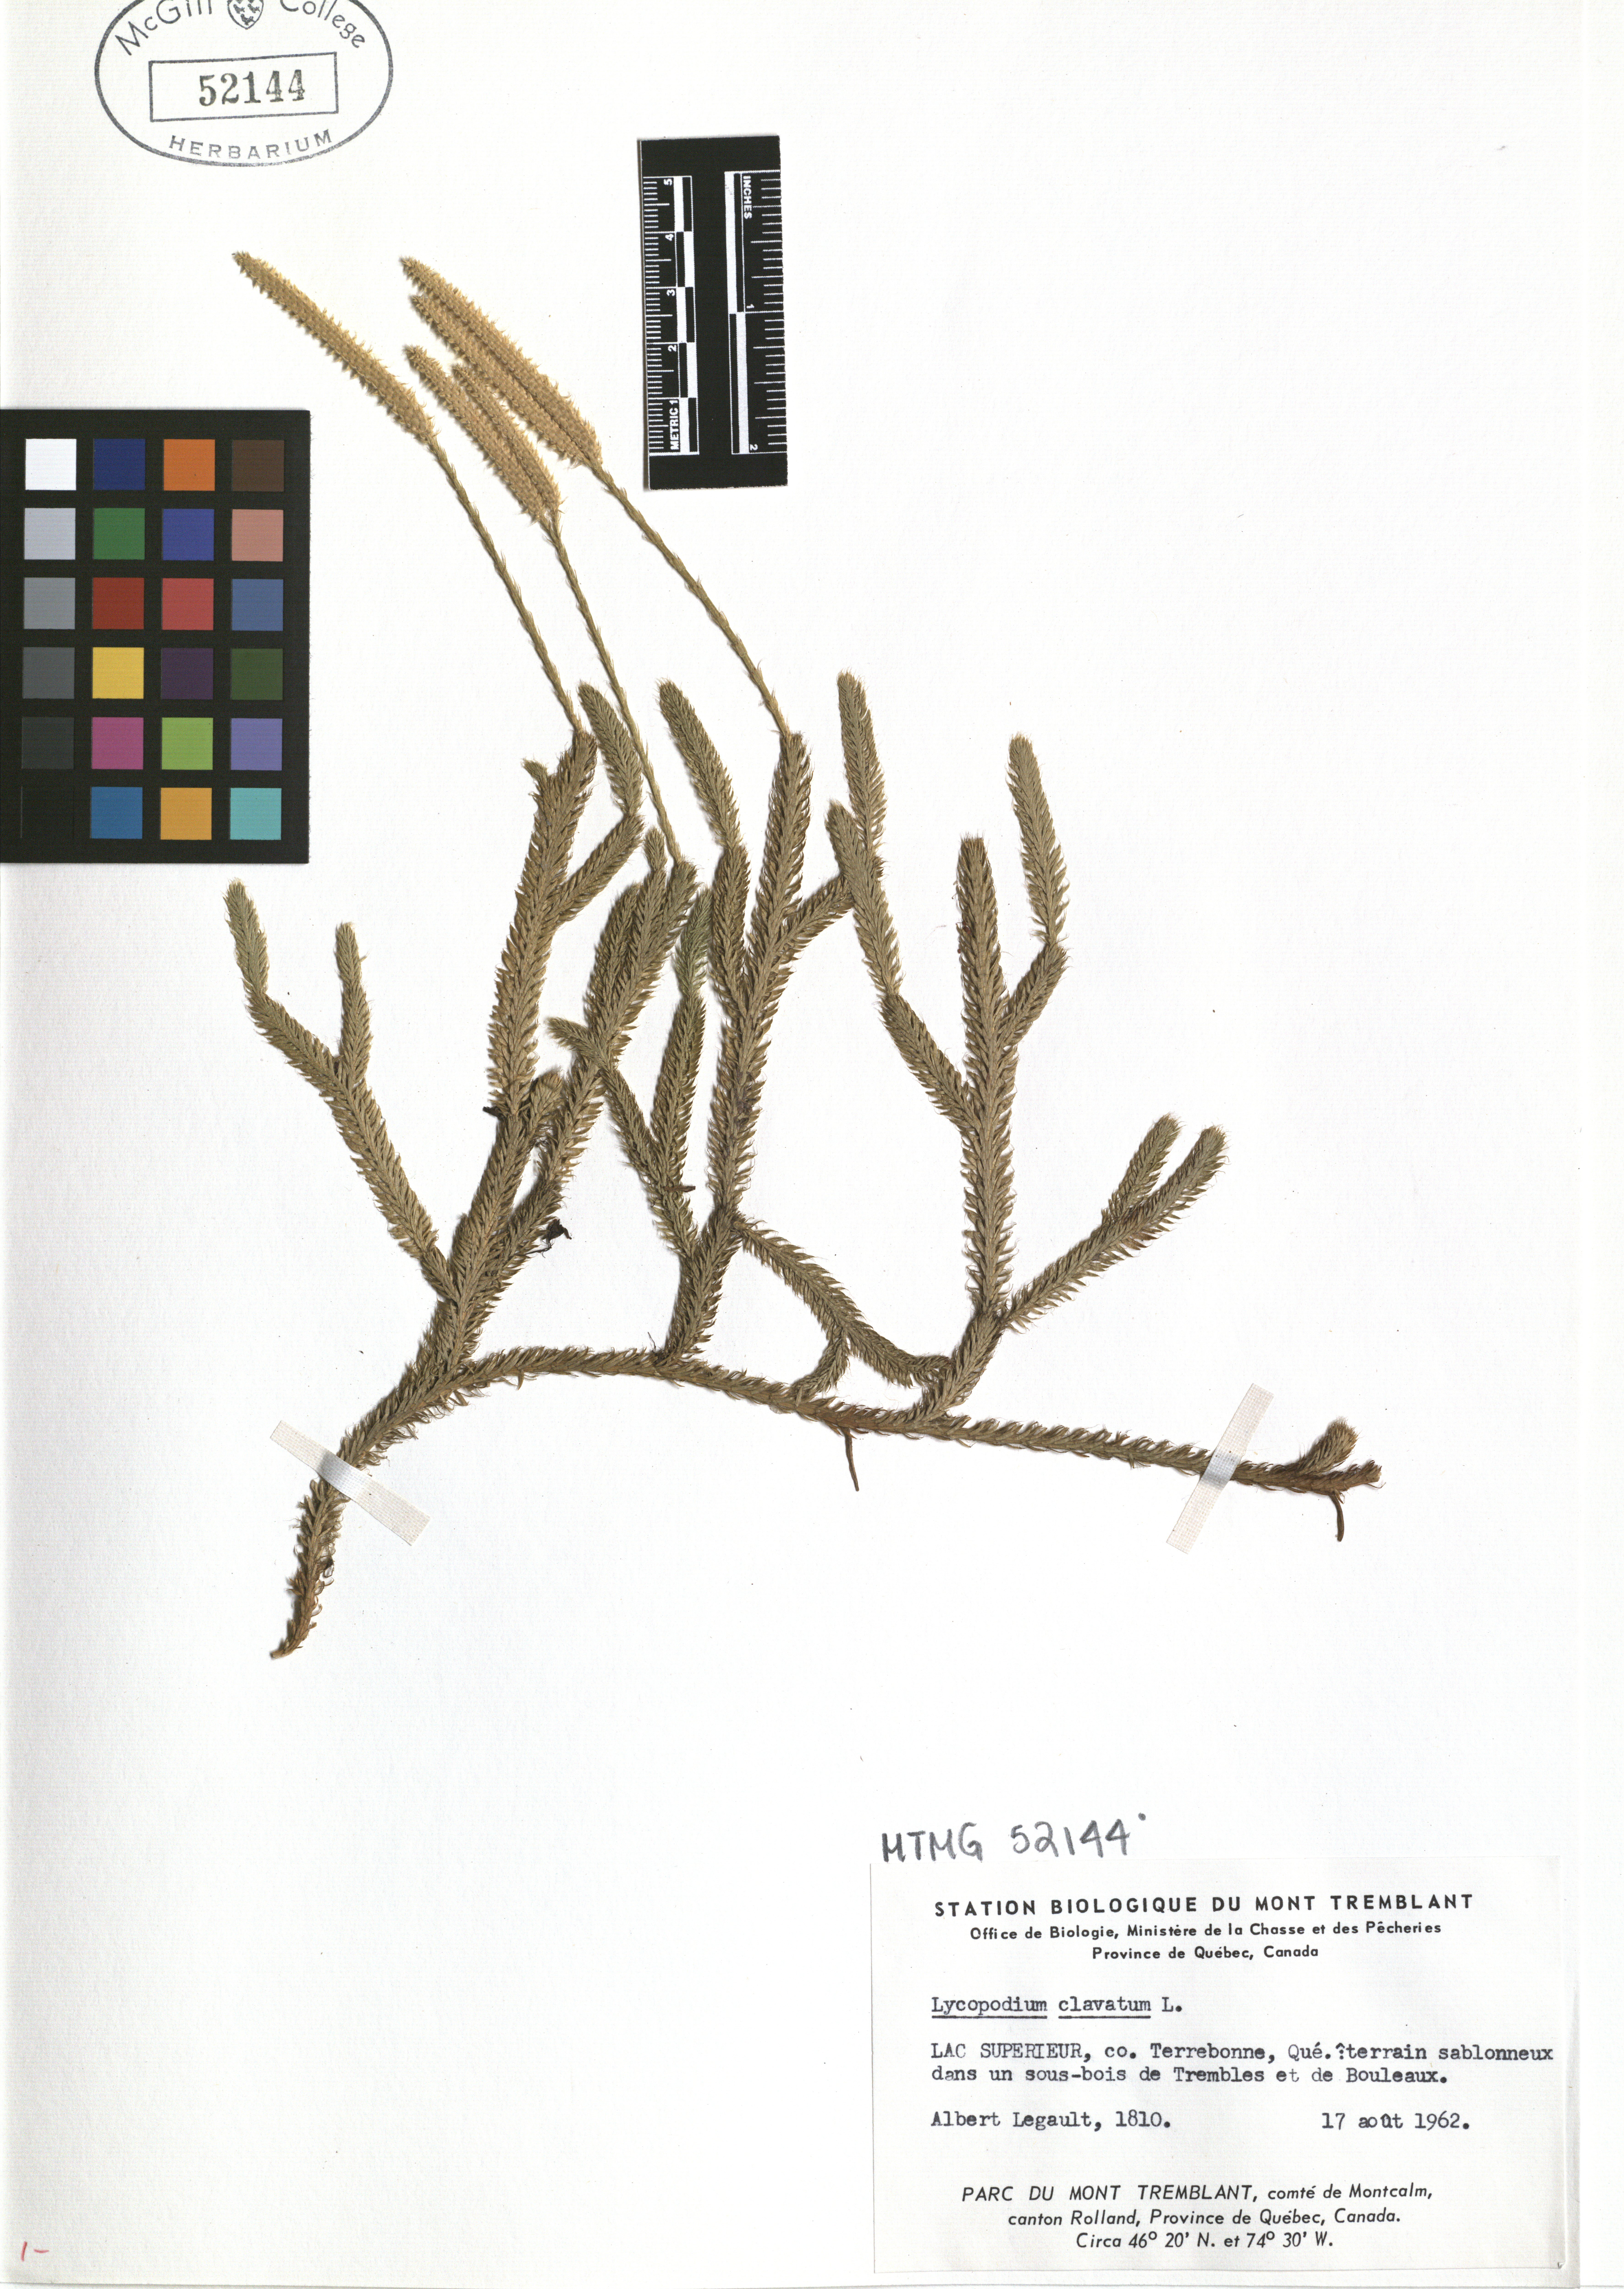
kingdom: Plantae
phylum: Tracheophyta
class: Lycopodiopsida
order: Lycopodiales
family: Lycopodiaceae
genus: Lycopodium
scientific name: Lycopodium clavatum
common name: Stag's-horn clubmoss
